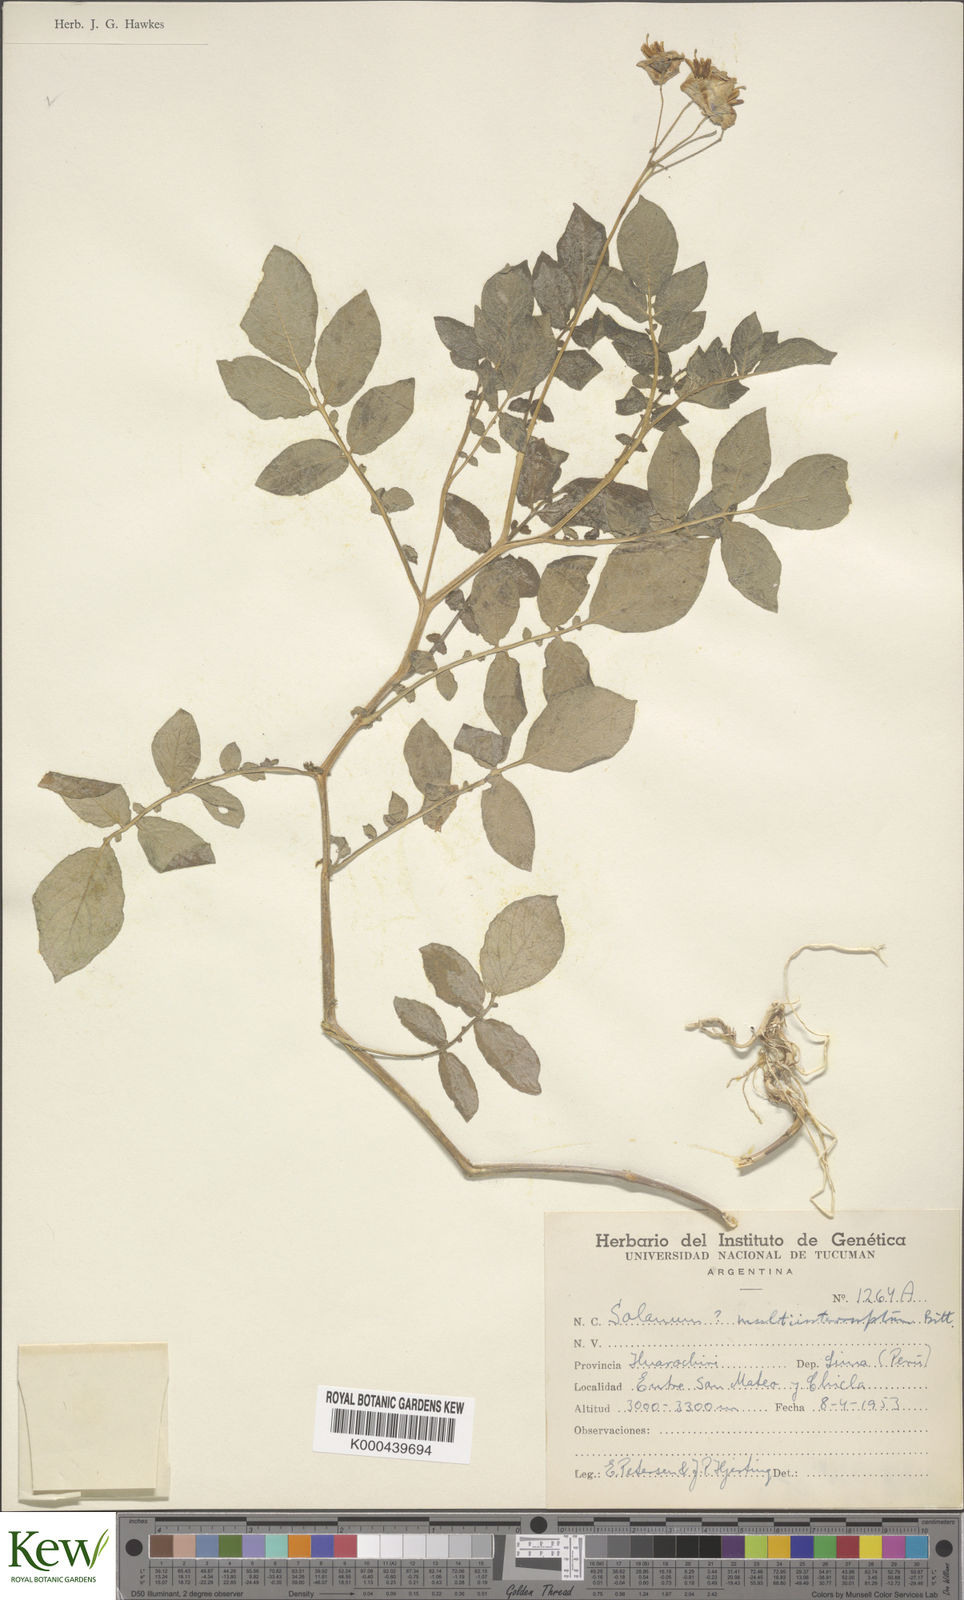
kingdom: Plantae
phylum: Tracheophyta
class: Magnoliopsida
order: Solanales
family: Solanaceae
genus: Solanum
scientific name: Solanum multiinterruptum
